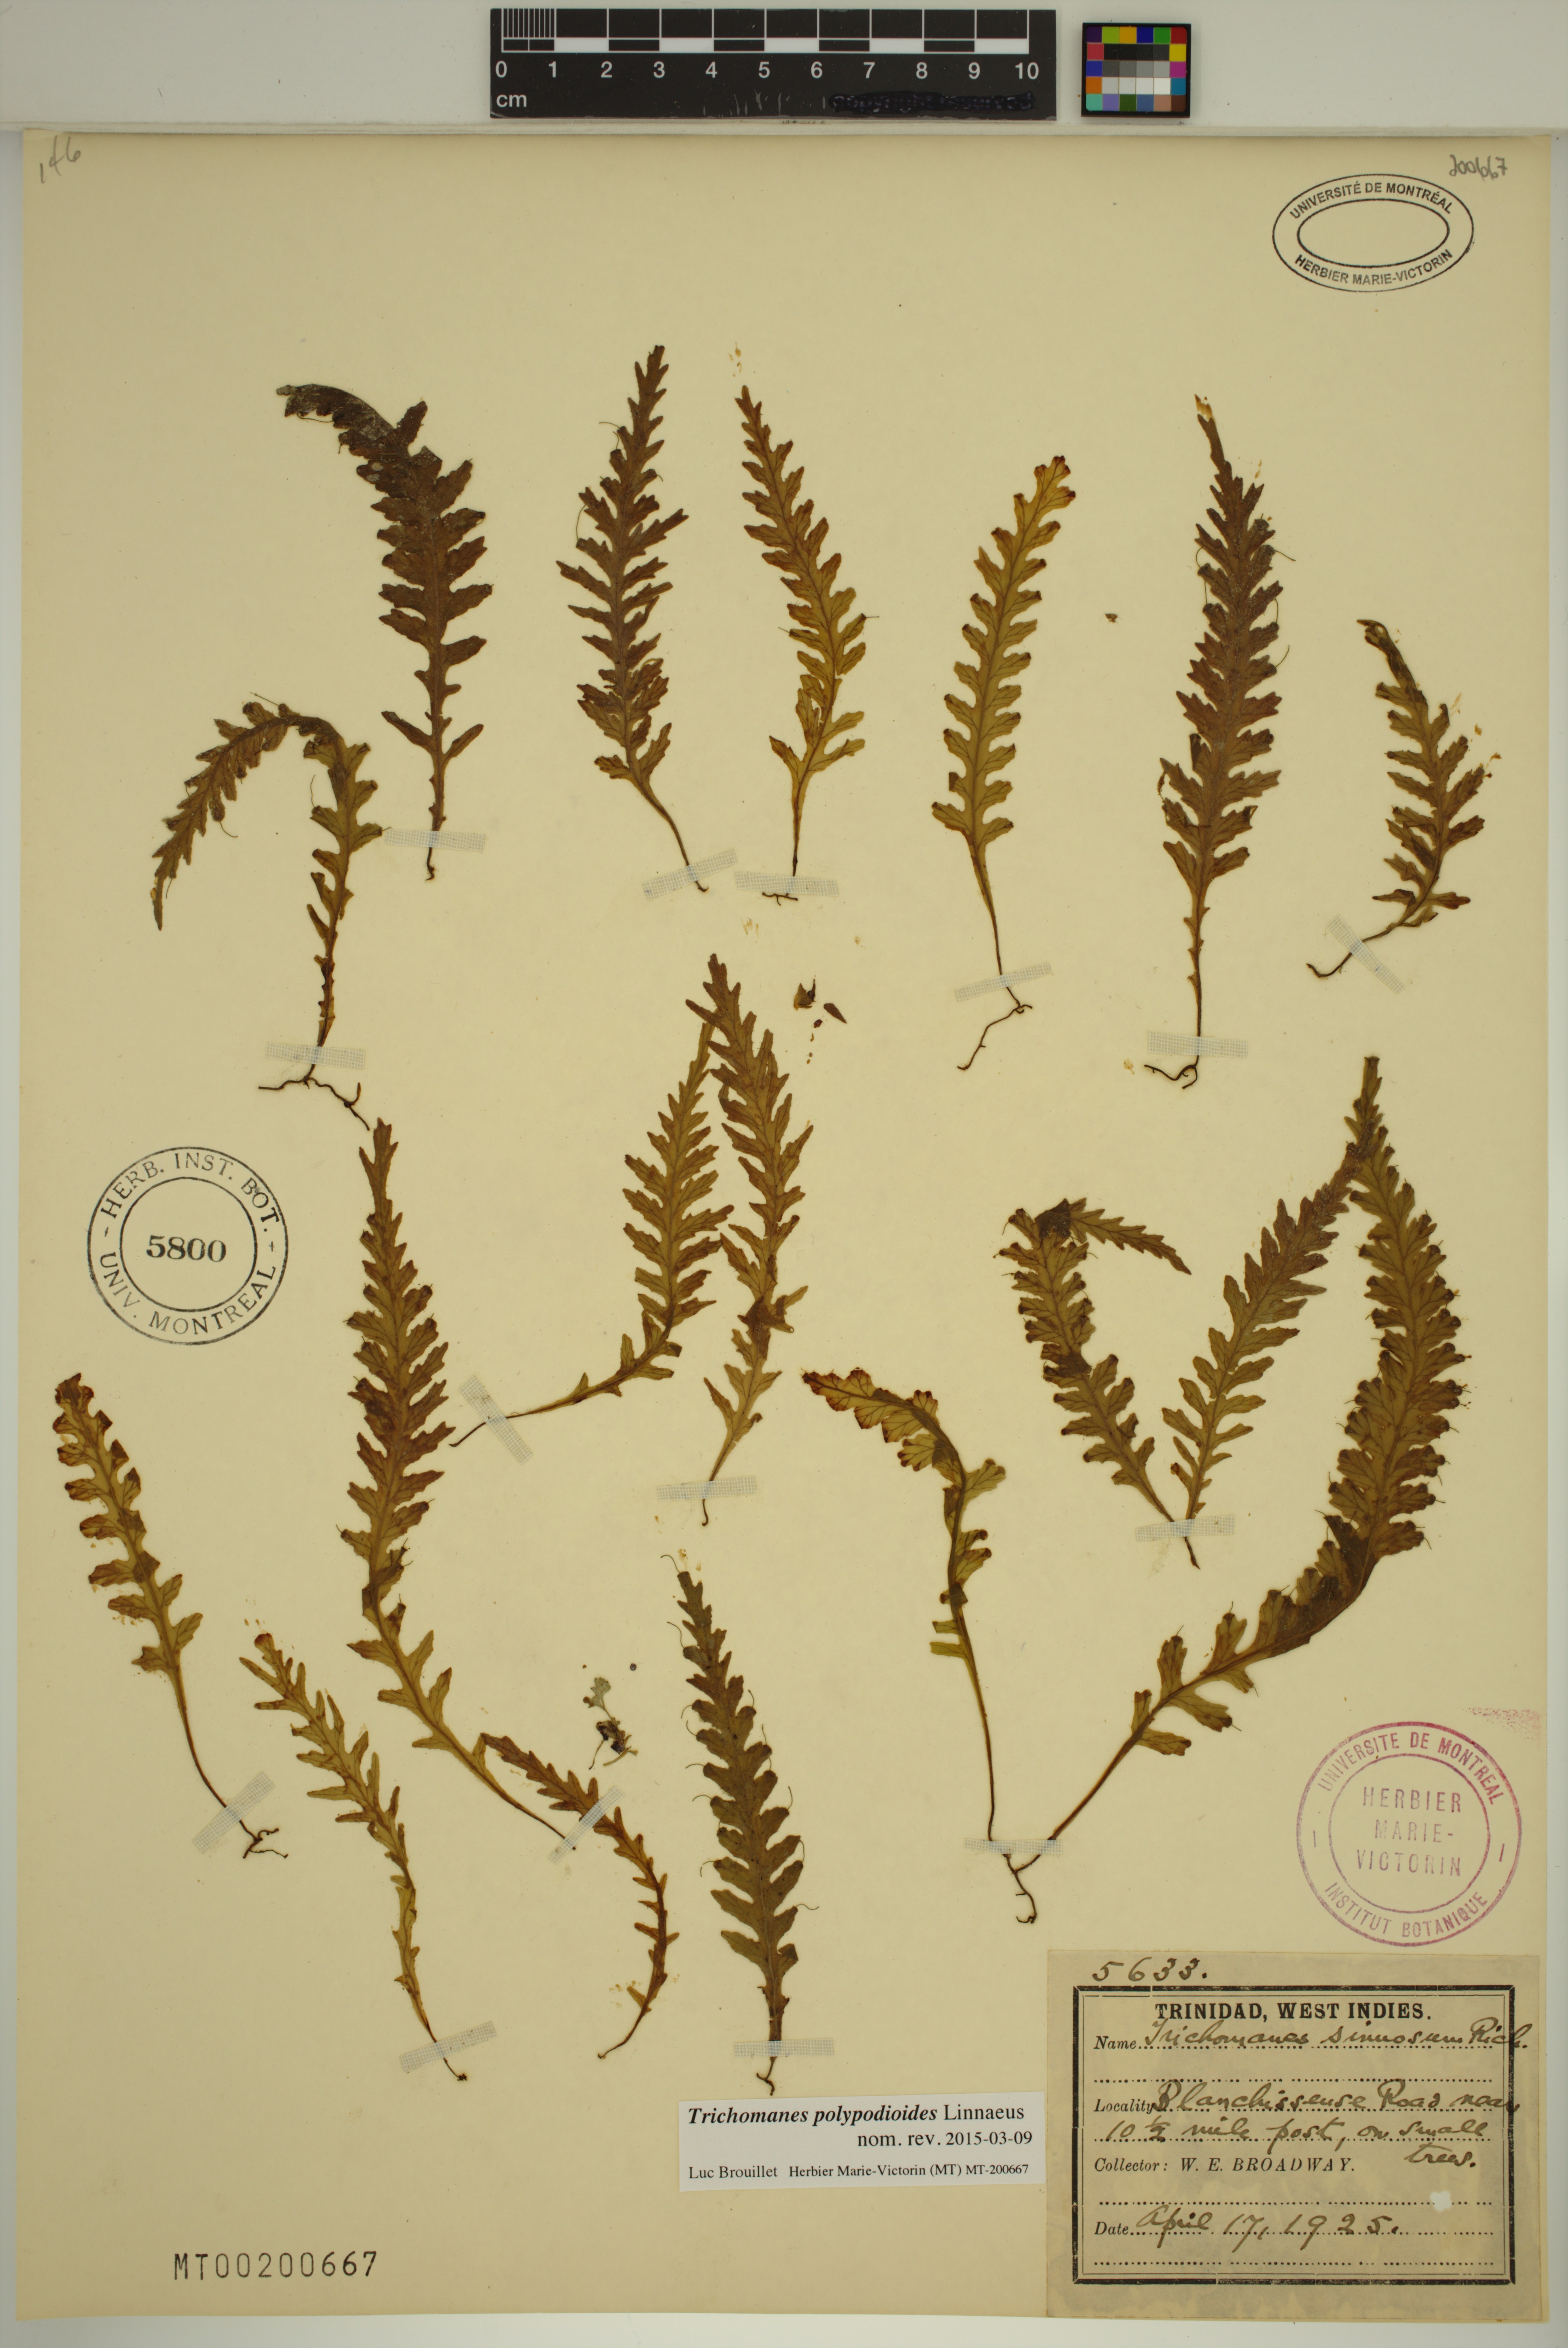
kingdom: Plantae
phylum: Tracheophyta
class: Polypodiopsida
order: Hymenophyllales
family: Hymenophyllaceae
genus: Trichomanes
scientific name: Trichomanes polypodioides
